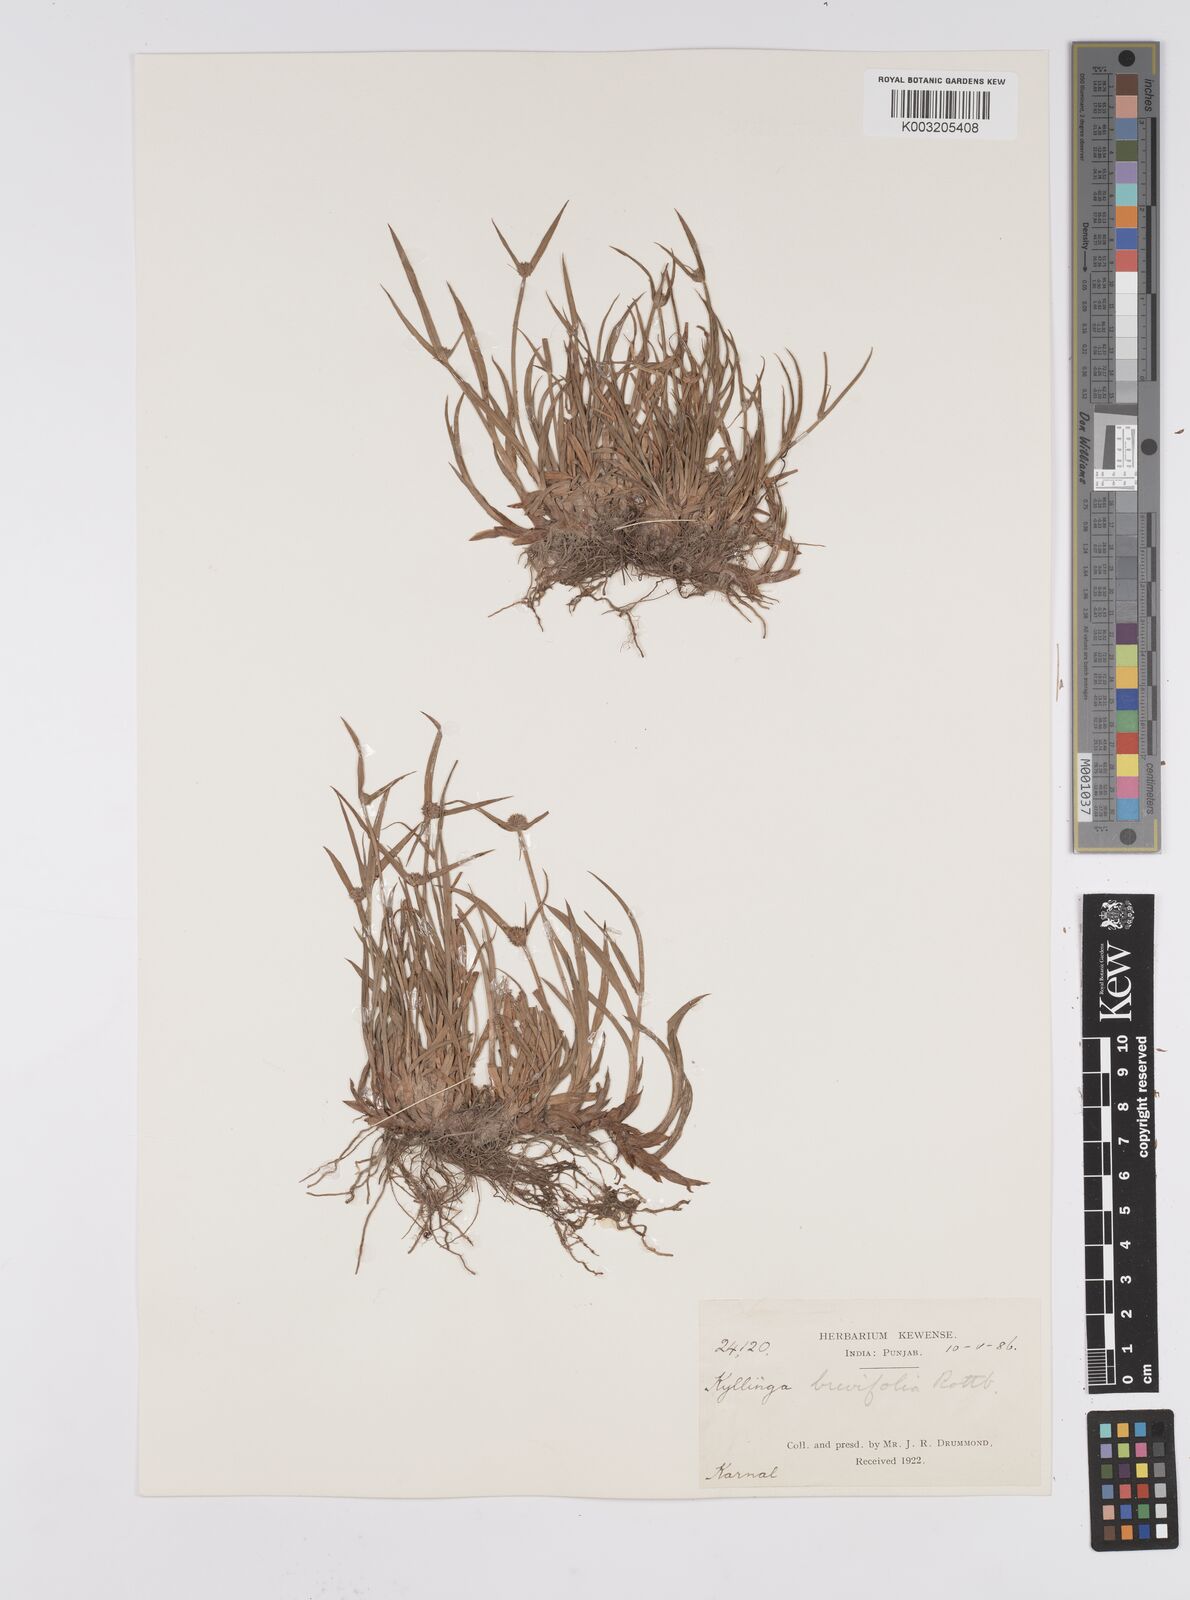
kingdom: Plantae
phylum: Tracheophyta
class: Liliopsida
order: Poales
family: Cyperaceae
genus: Cyperus
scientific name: Cyperus brevifolius
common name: Globe kyllinga
